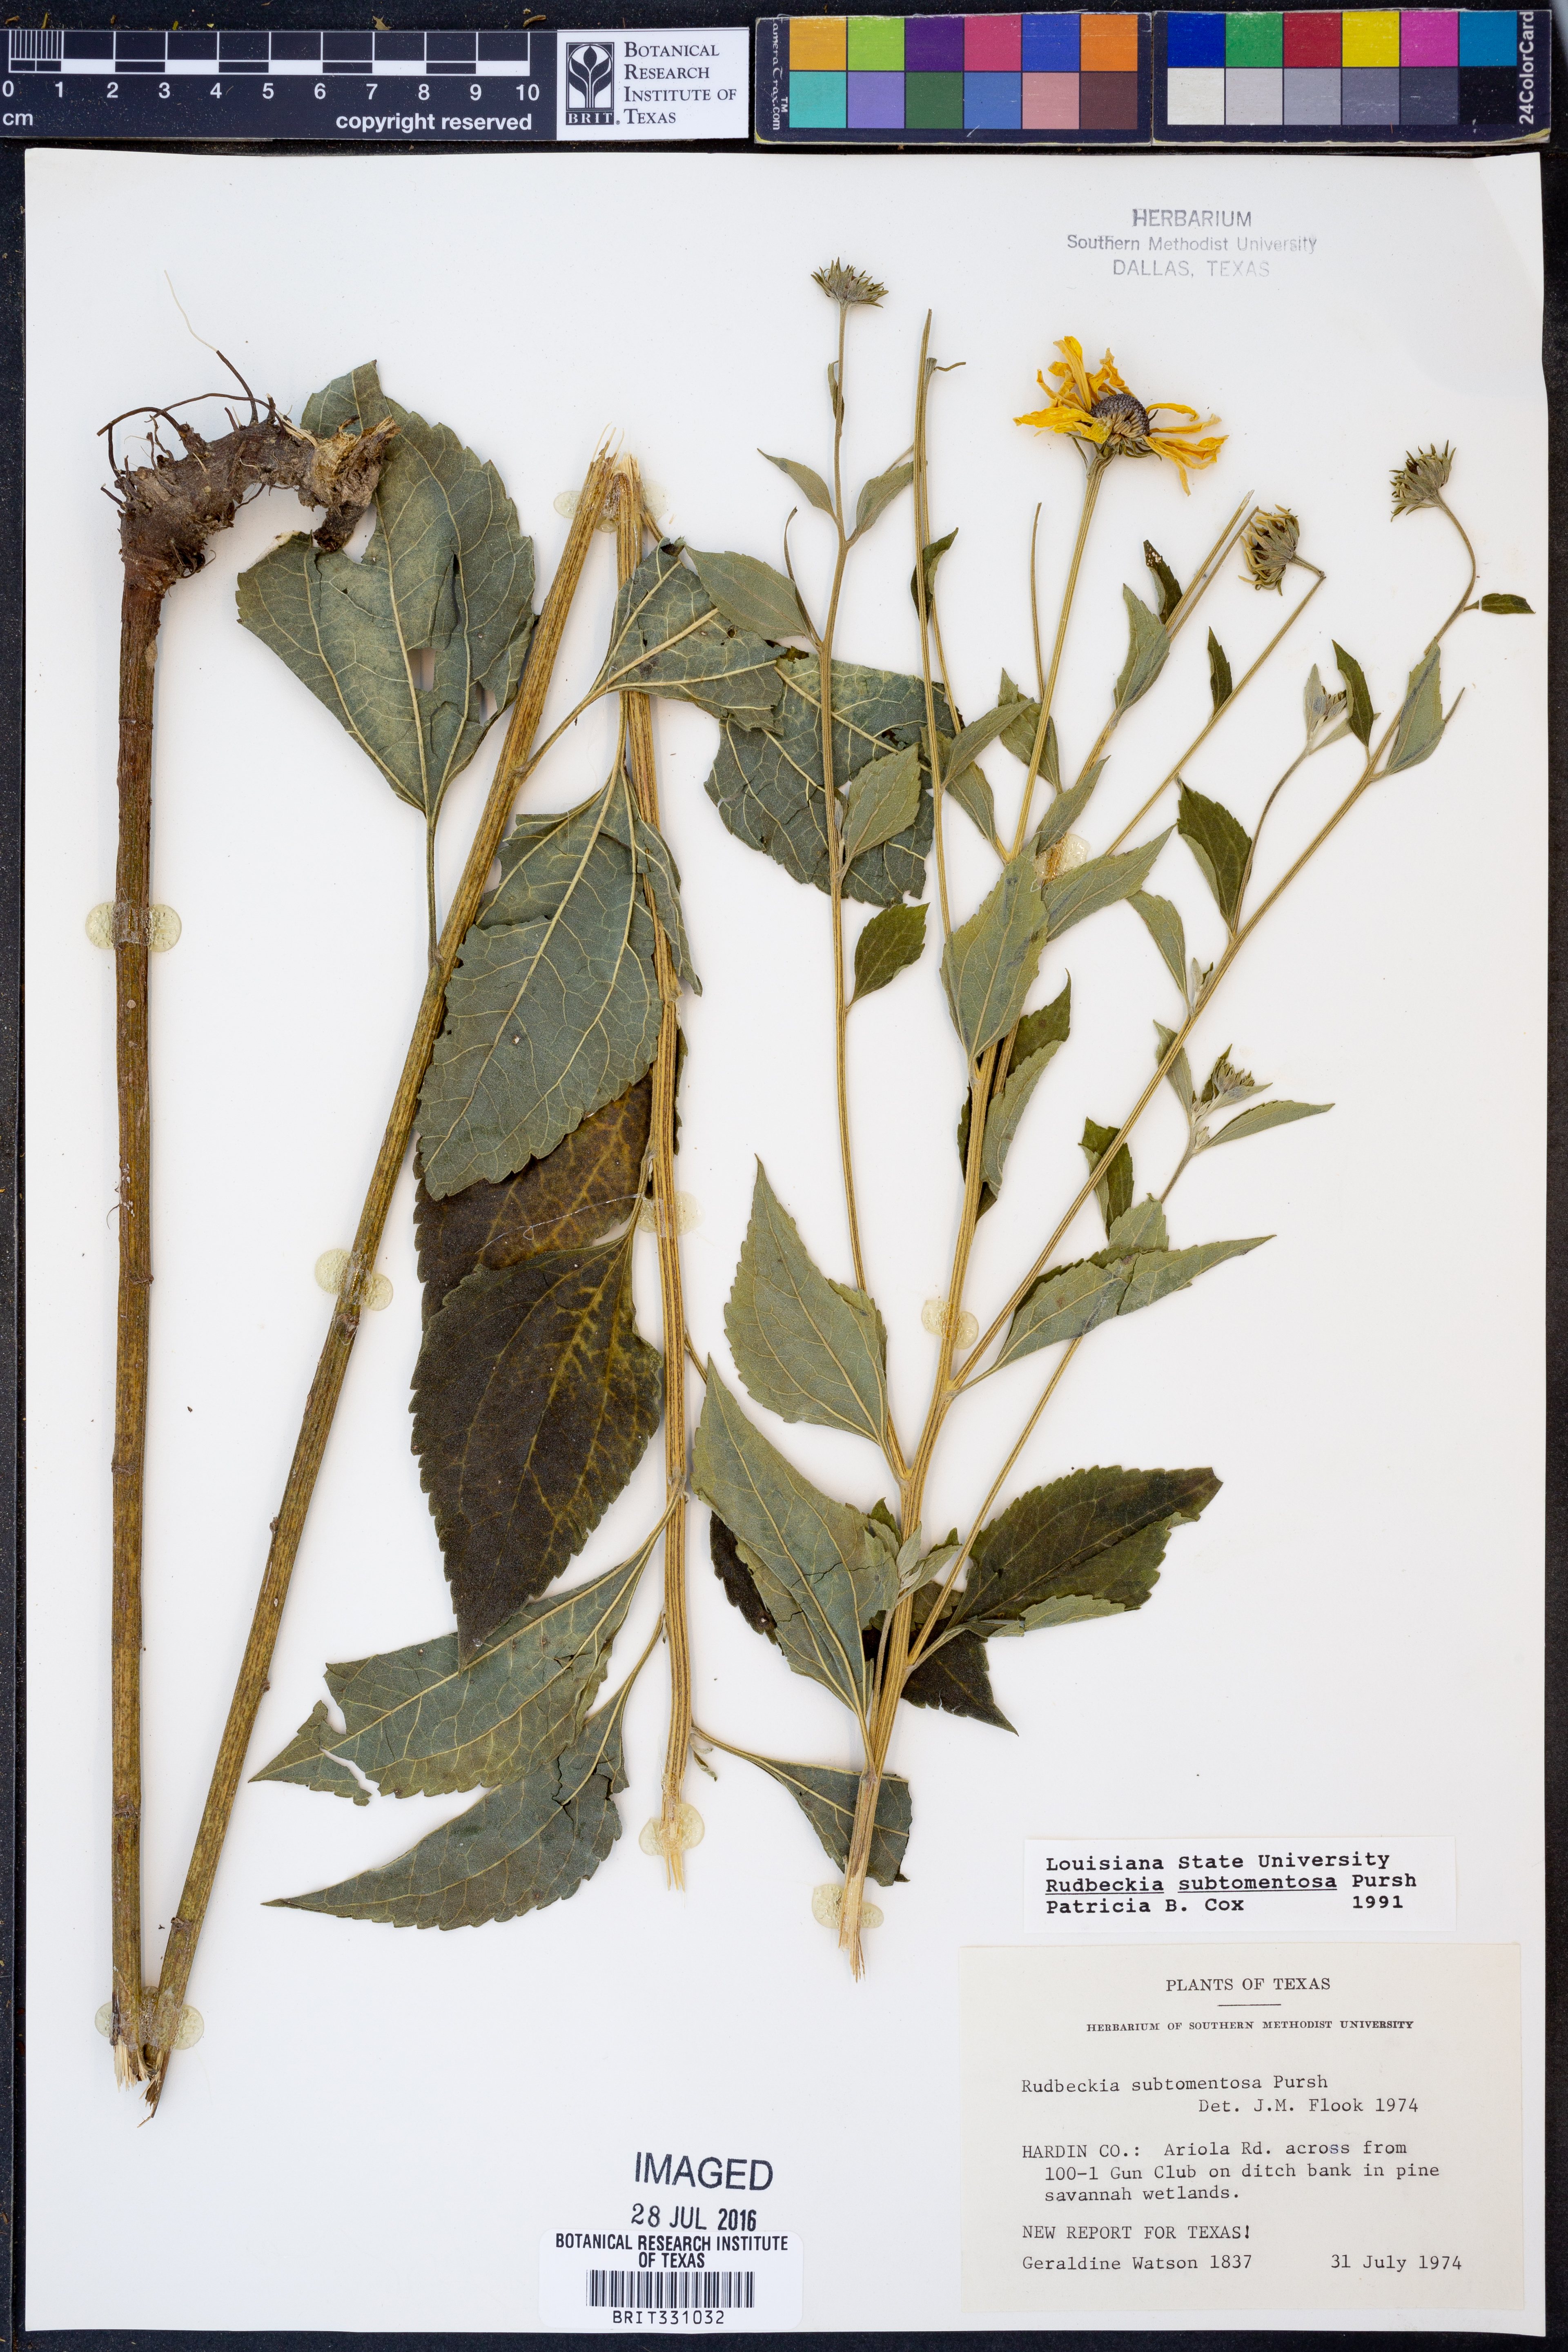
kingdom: Plantae
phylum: Tracheophyta
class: Magnoliopsida
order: Asterales
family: Asteraceae
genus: Rudbeckia
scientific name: Rudbeckia subtomentosa
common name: Sweet coneflower
